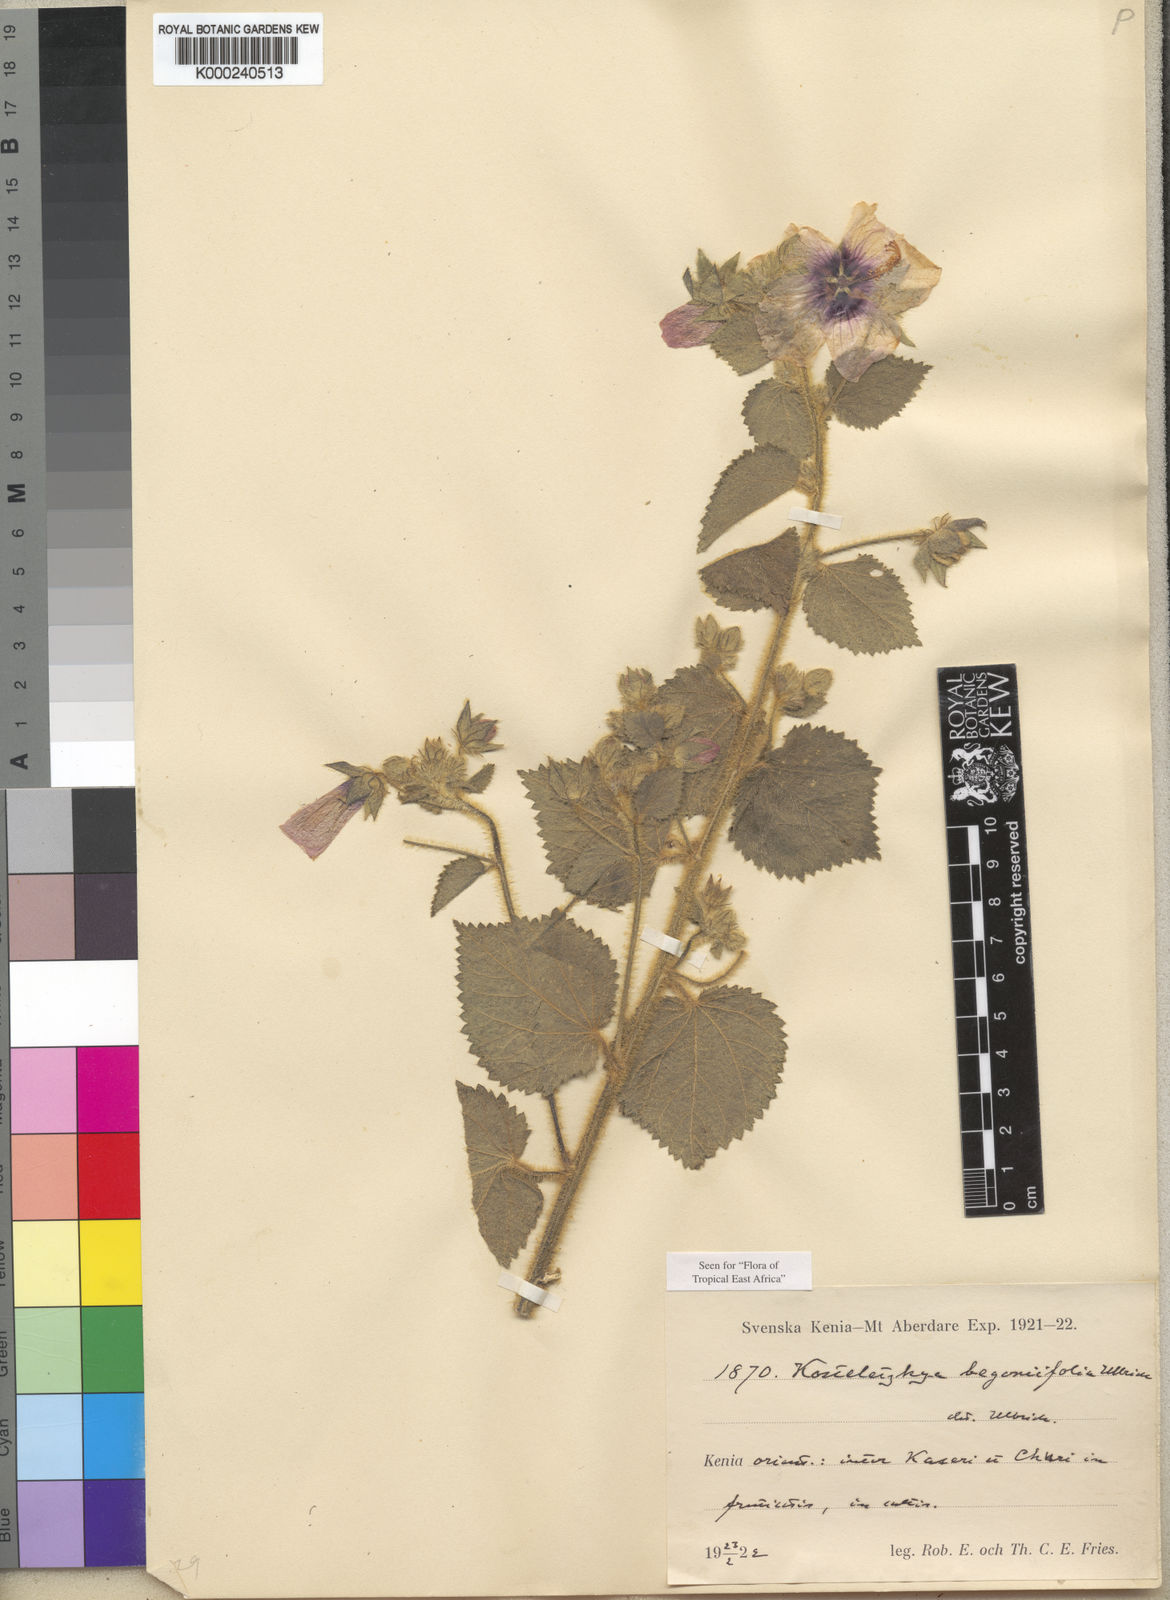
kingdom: Plantae
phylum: Tracheophyta
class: Magnoliopsida
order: Malvales
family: Malvaceae
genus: Kosteletzkya
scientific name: Kosteletzkya begoniifolia
